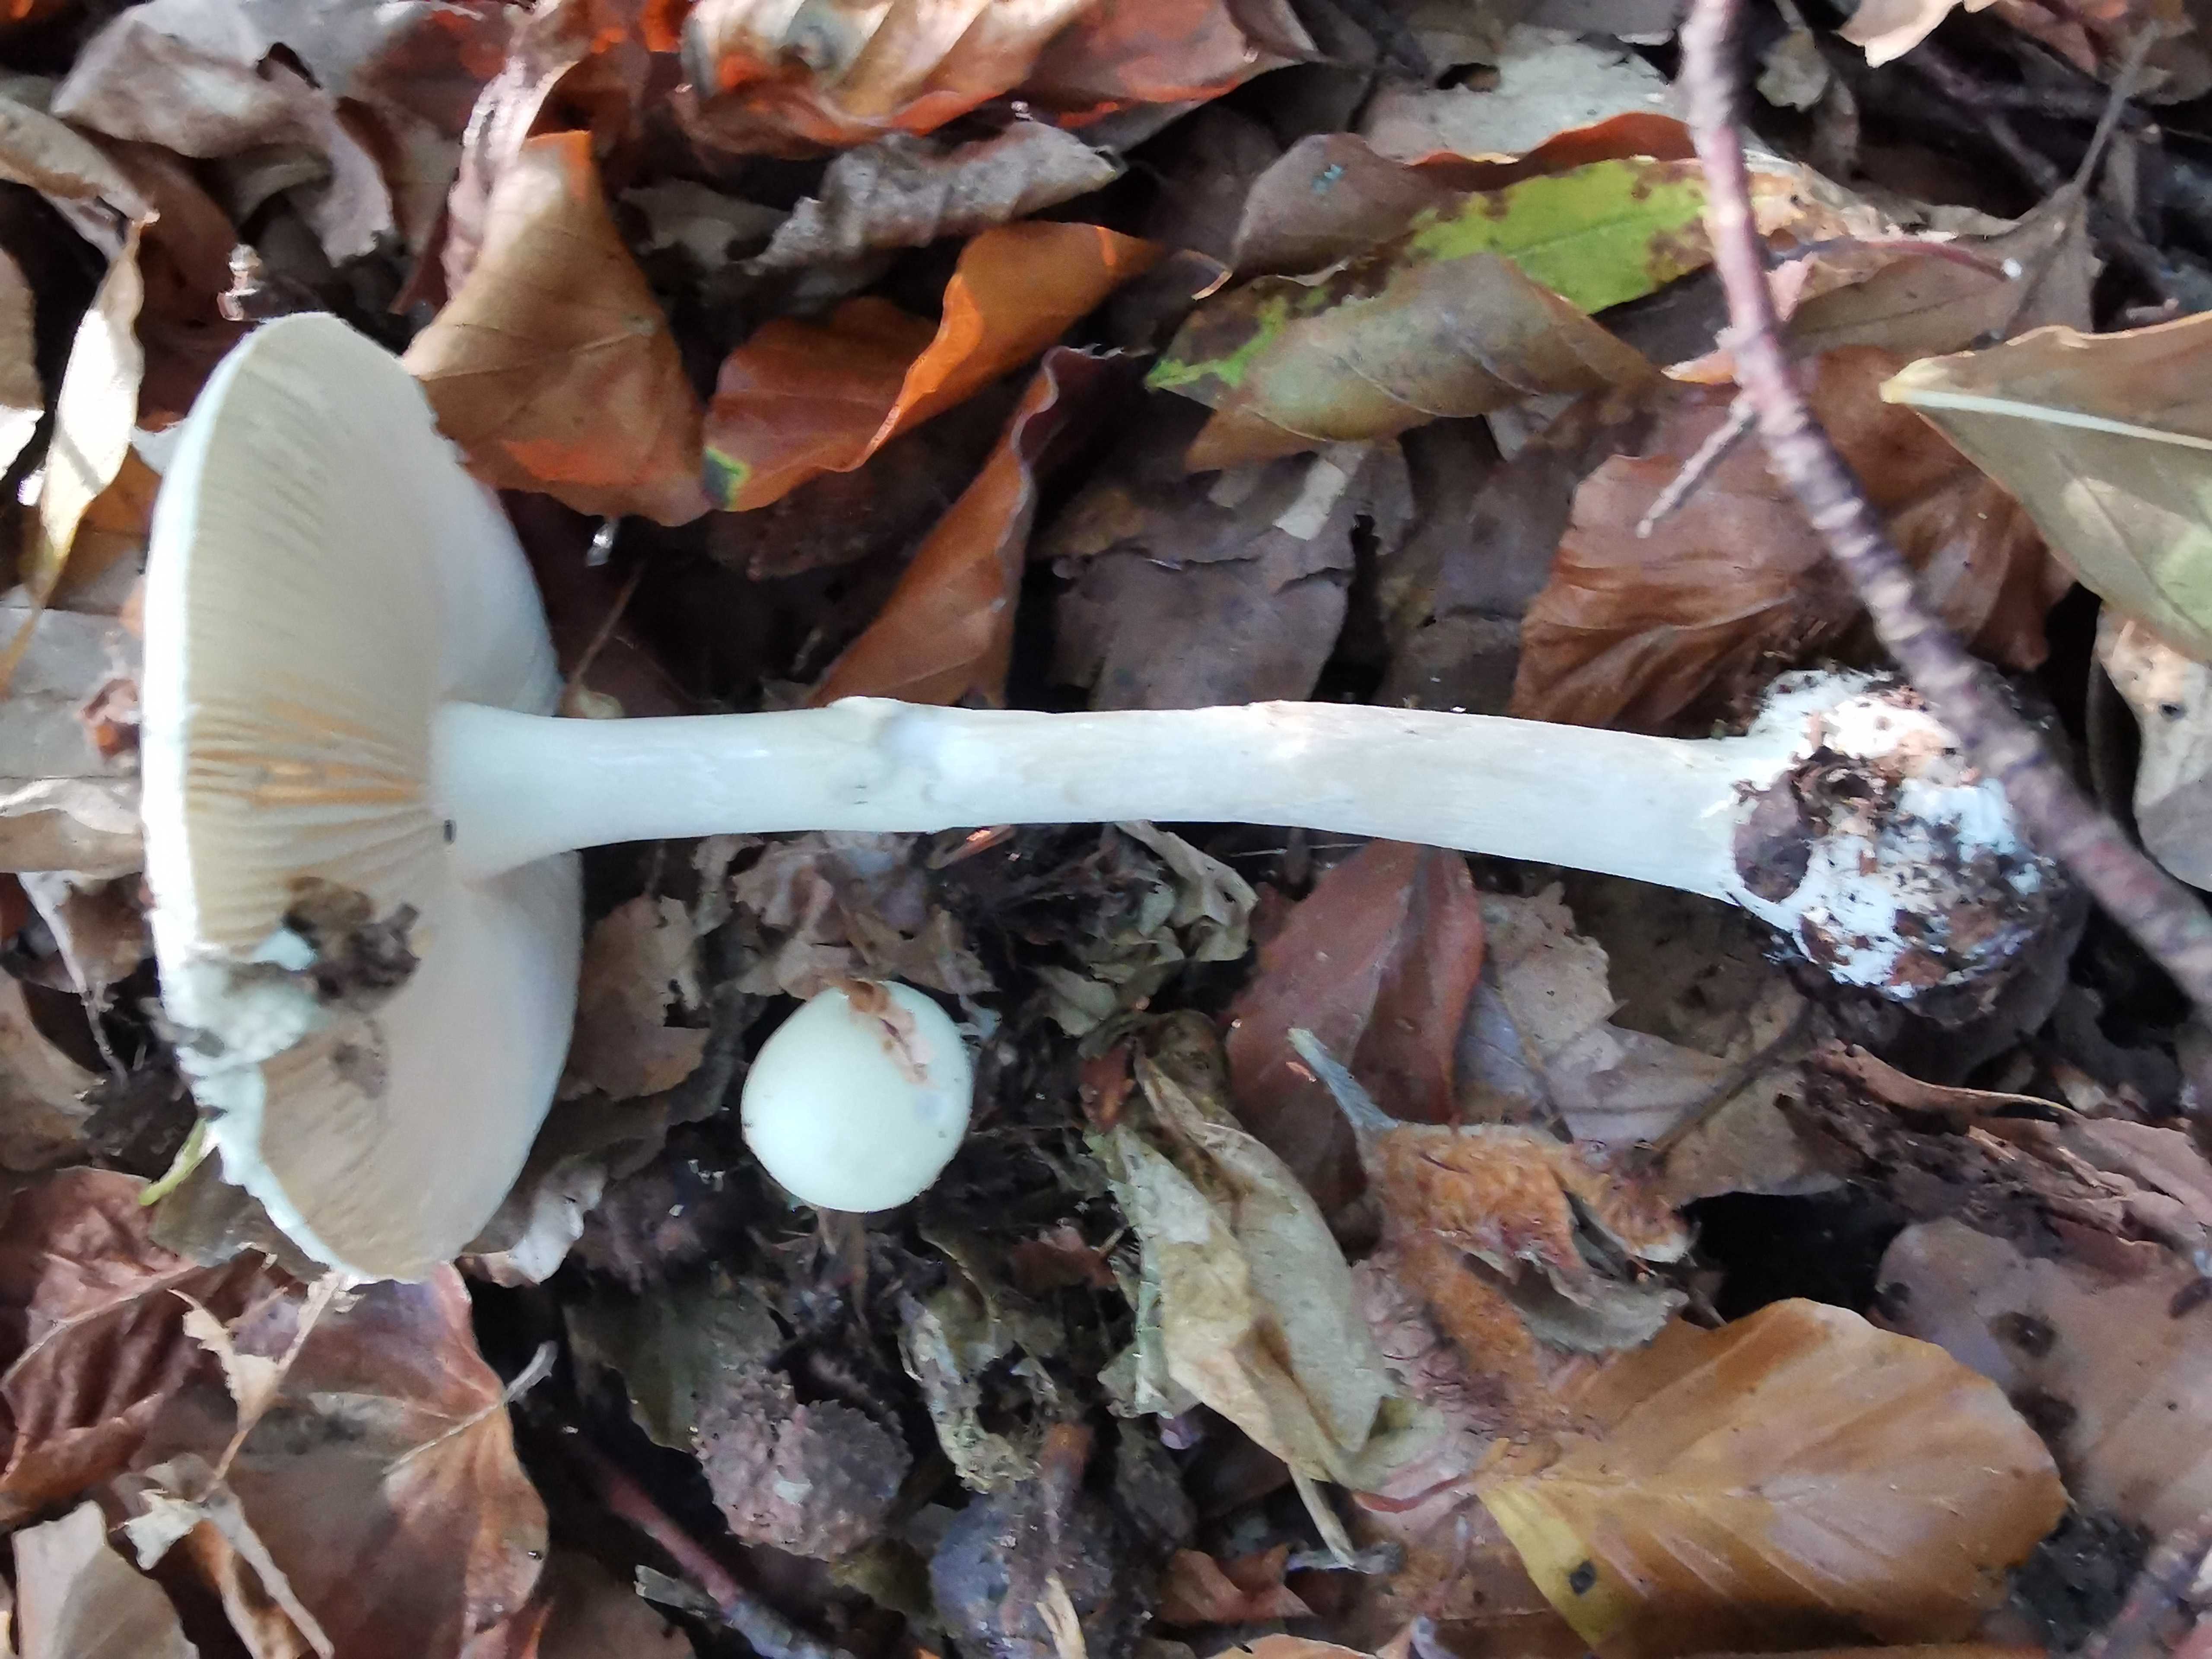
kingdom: Fungi
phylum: Basidiomycota
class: Agaricomycetes
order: Agaricales
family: Amanitaceae
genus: Amanita
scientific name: Amanita citrina
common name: kugleknoldet fluesvamp
